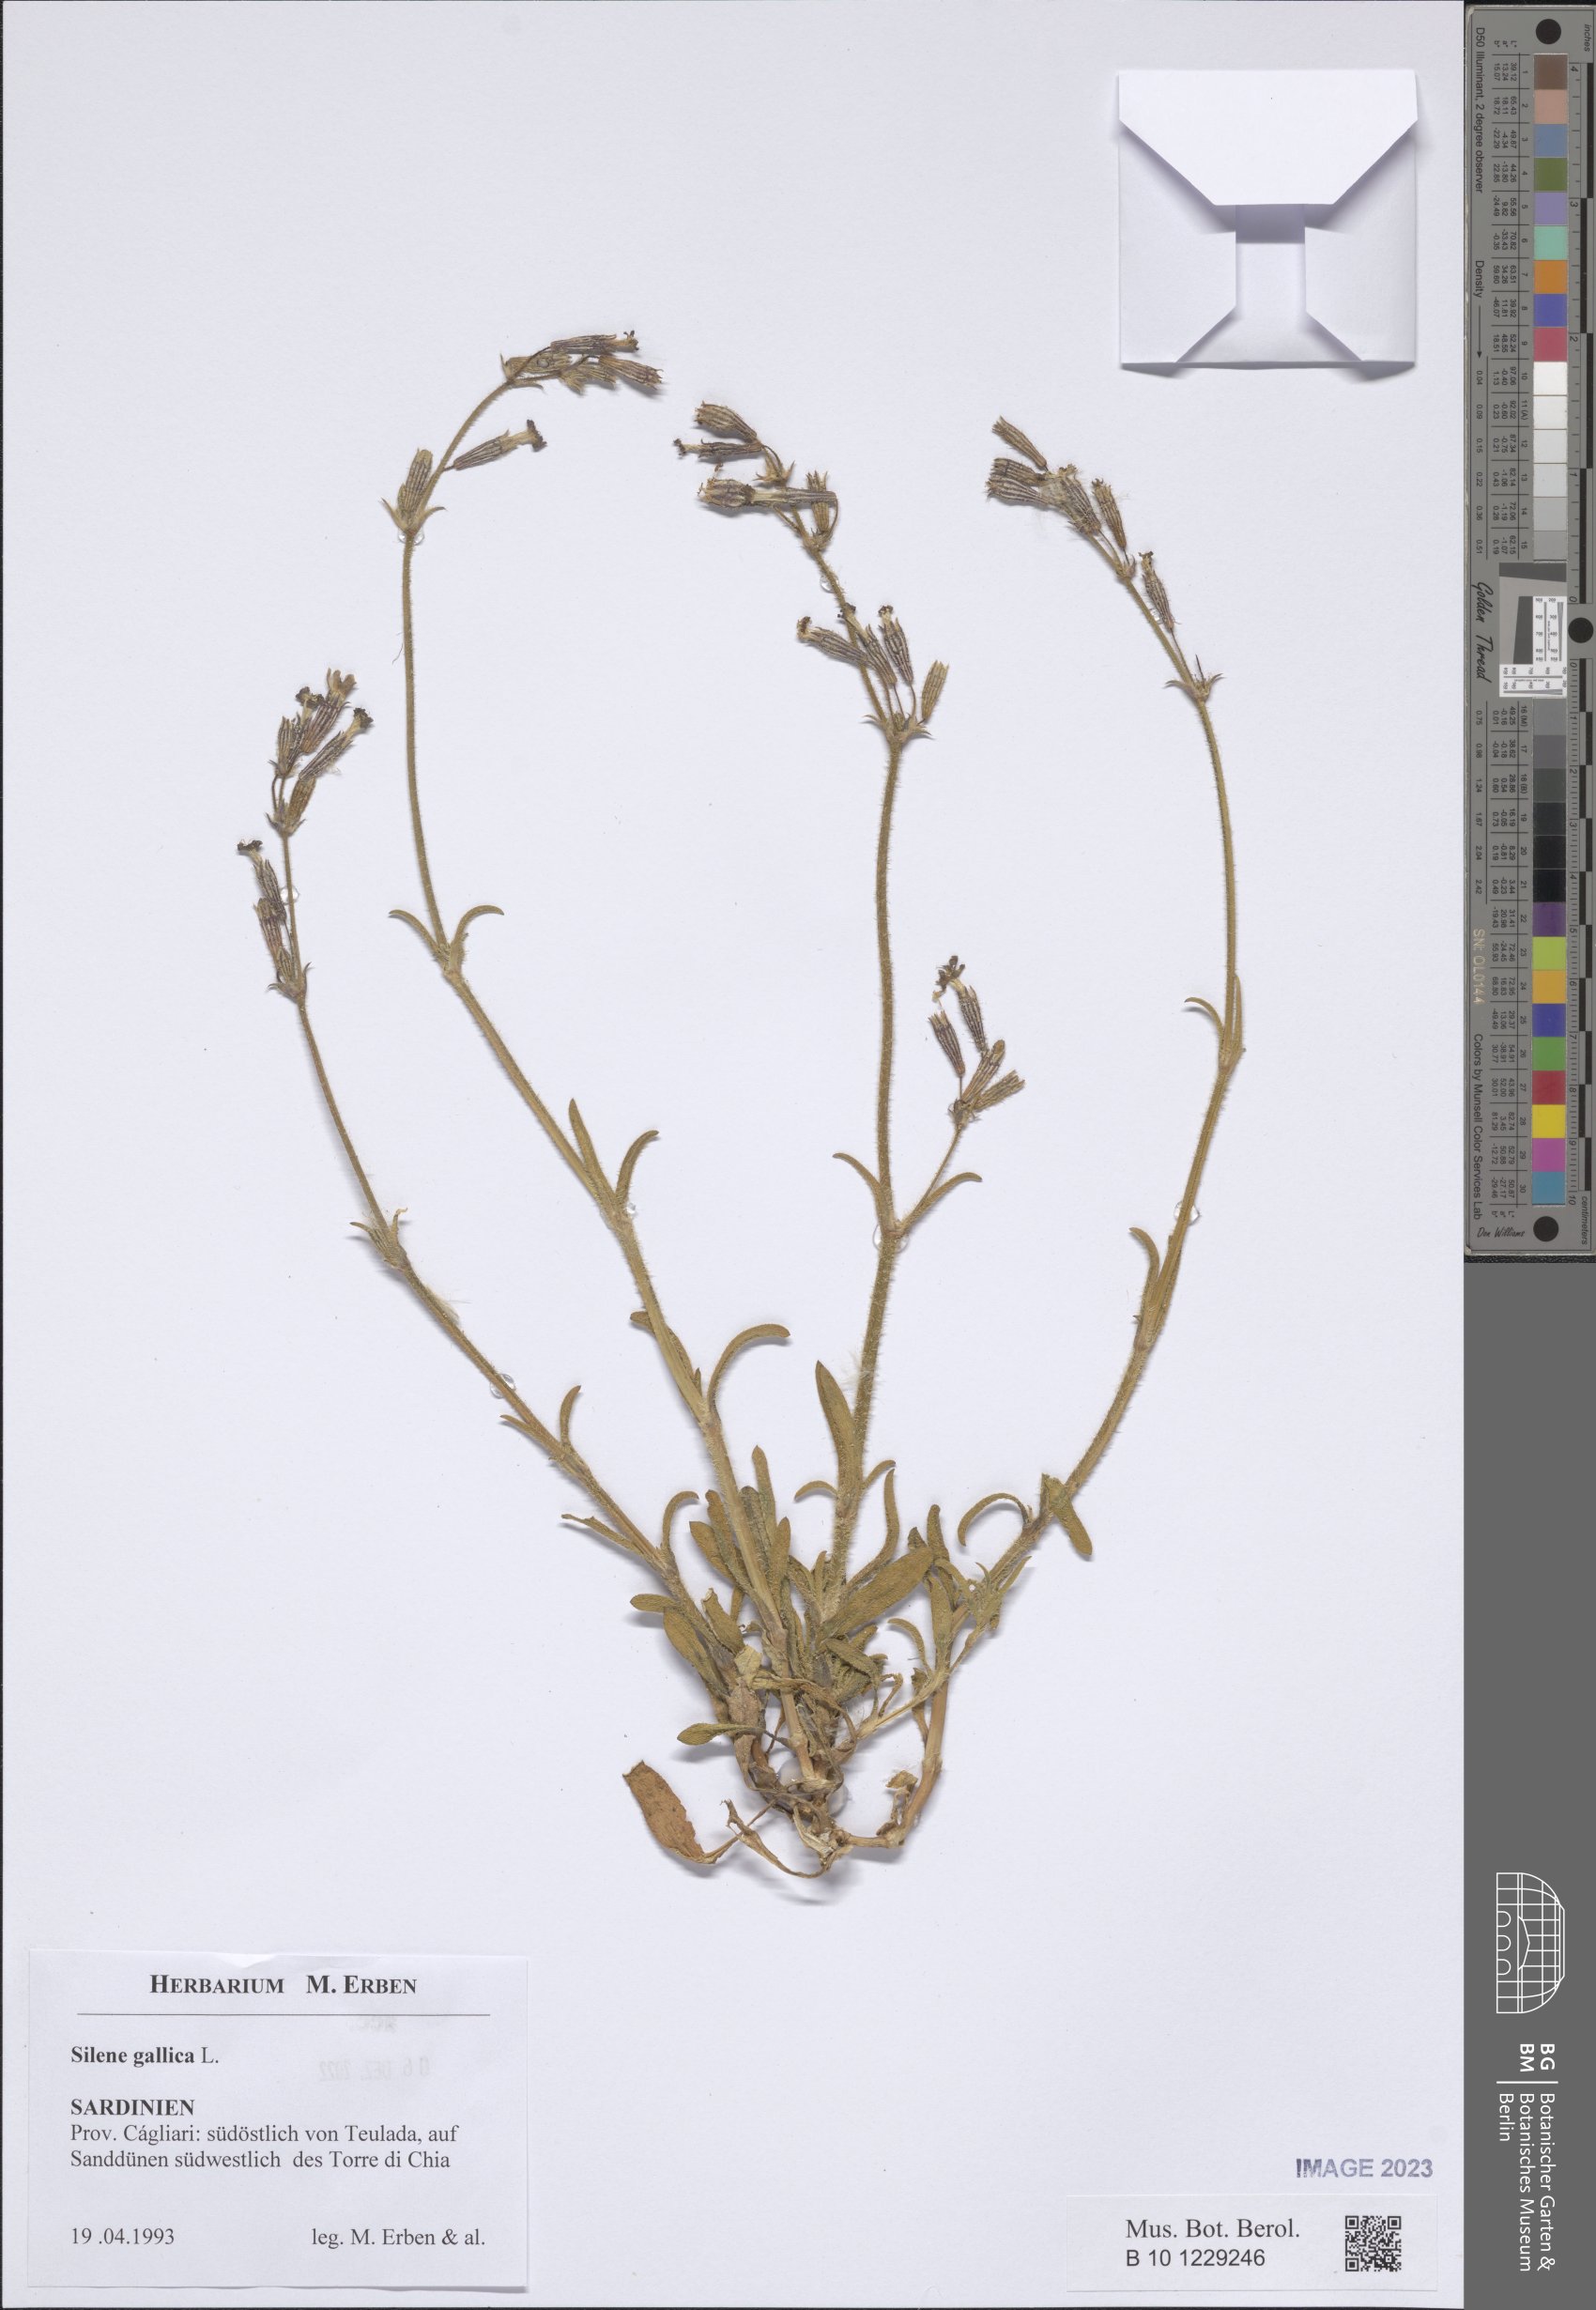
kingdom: Plantae
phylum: Tracheophyta
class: Magnoliopsida
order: Caryophyllales
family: Caryophyllaceae
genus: Silene
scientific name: Silene gallica
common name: Small-flowered catchfly
